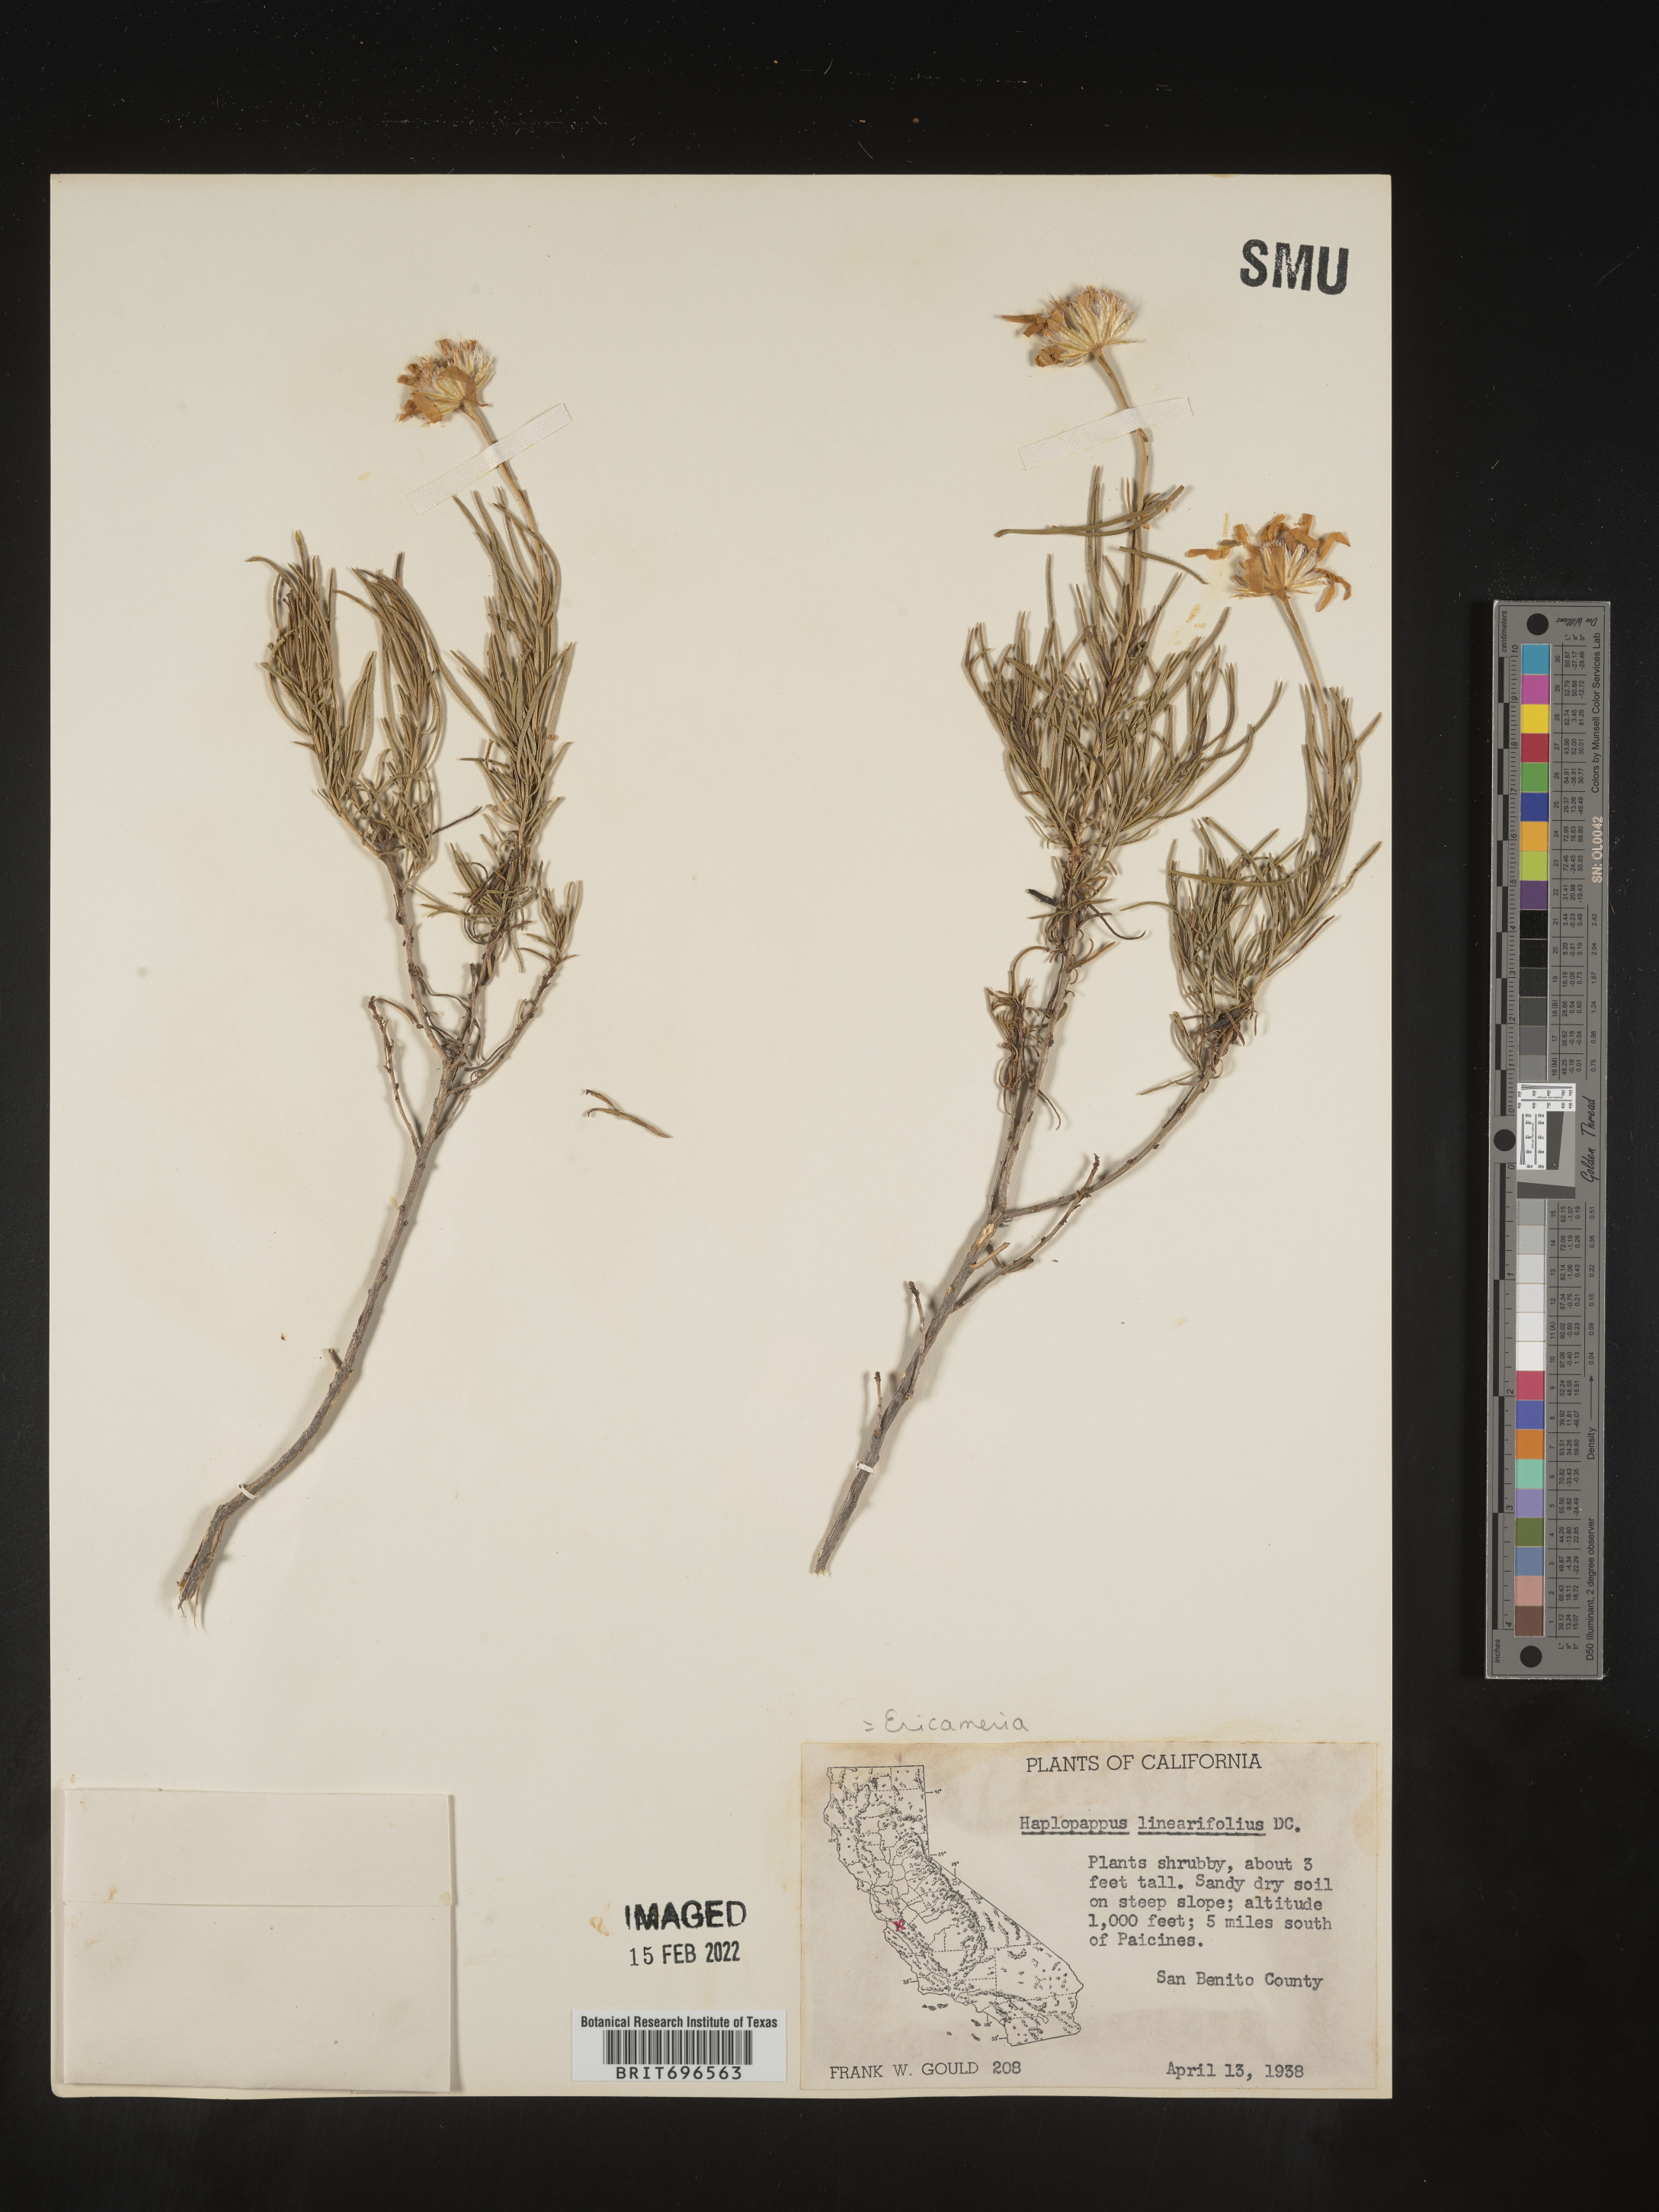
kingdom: Plantae
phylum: Tracheophyta
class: Magnoliopsida
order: Asterales
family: Asteraceae
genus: Ericameria
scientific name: Ericameria linearifolia
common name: Interior goldenbush
